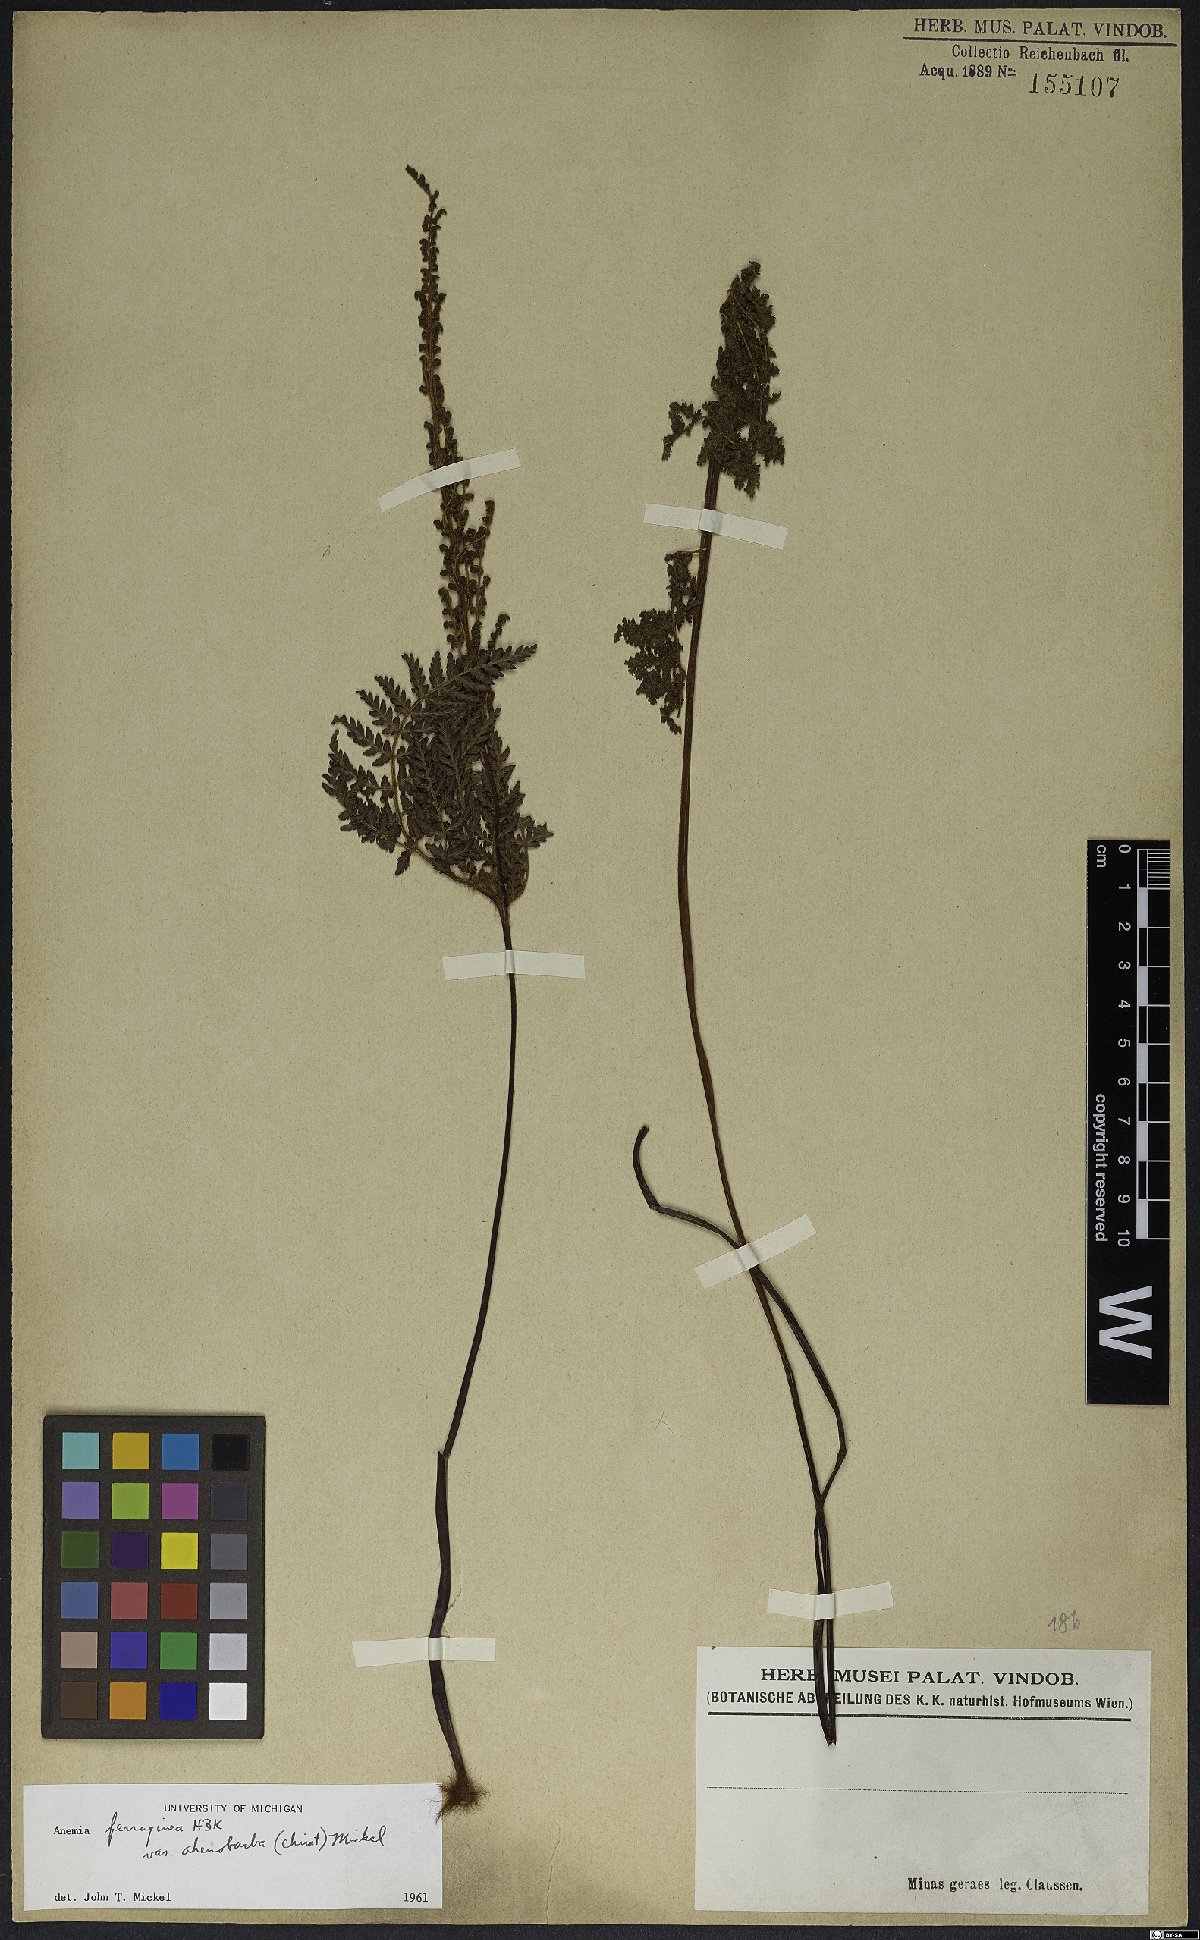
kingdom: Plantae
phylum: Tracheophyta
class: Polypodiopsida
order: Schizaeales
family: Anemiaceae
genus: Anemia
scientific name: Anemia ferruginea
